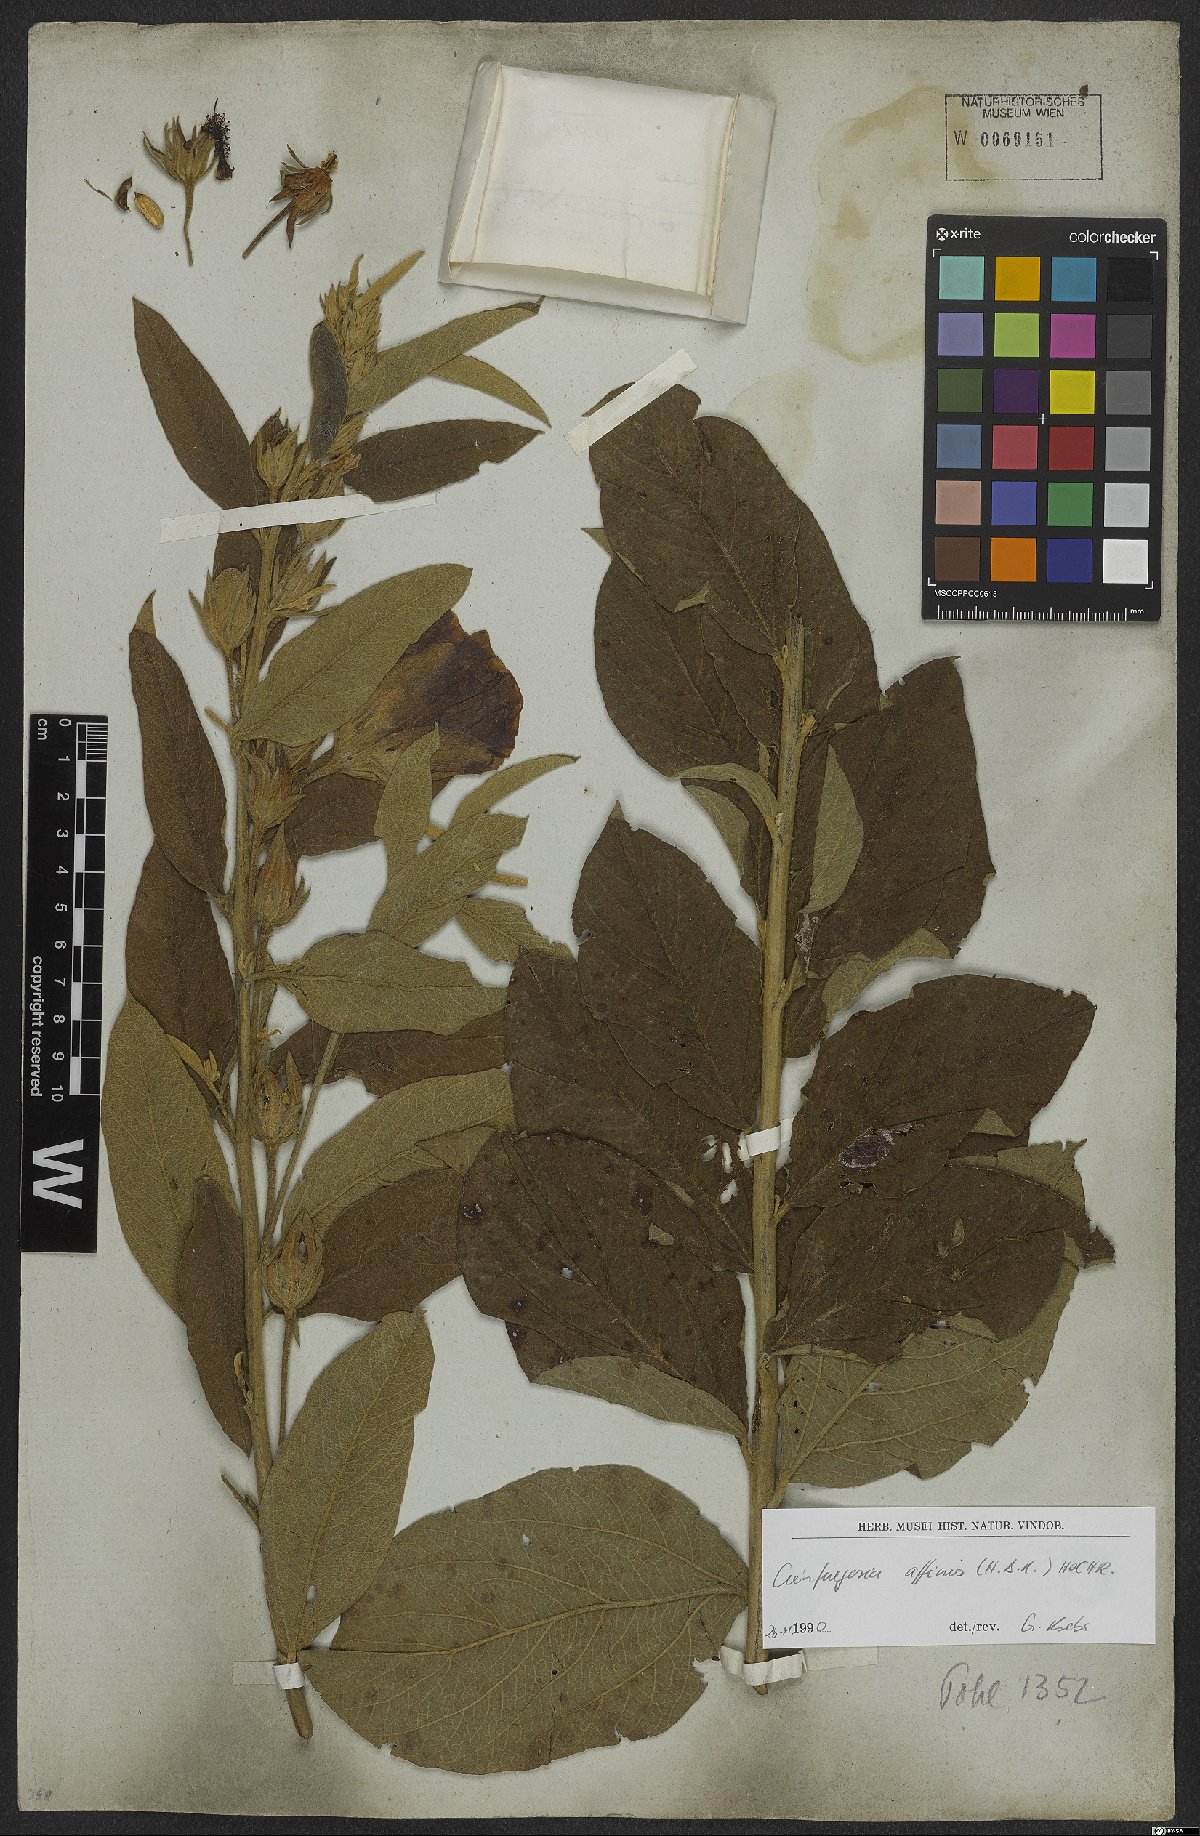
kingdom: Plantae
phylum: Tracheophyta
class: Magnoliopsida
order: Malvales
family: Malvaceae
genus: Cienfuegosia
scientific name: Cienfuegosia affinis
